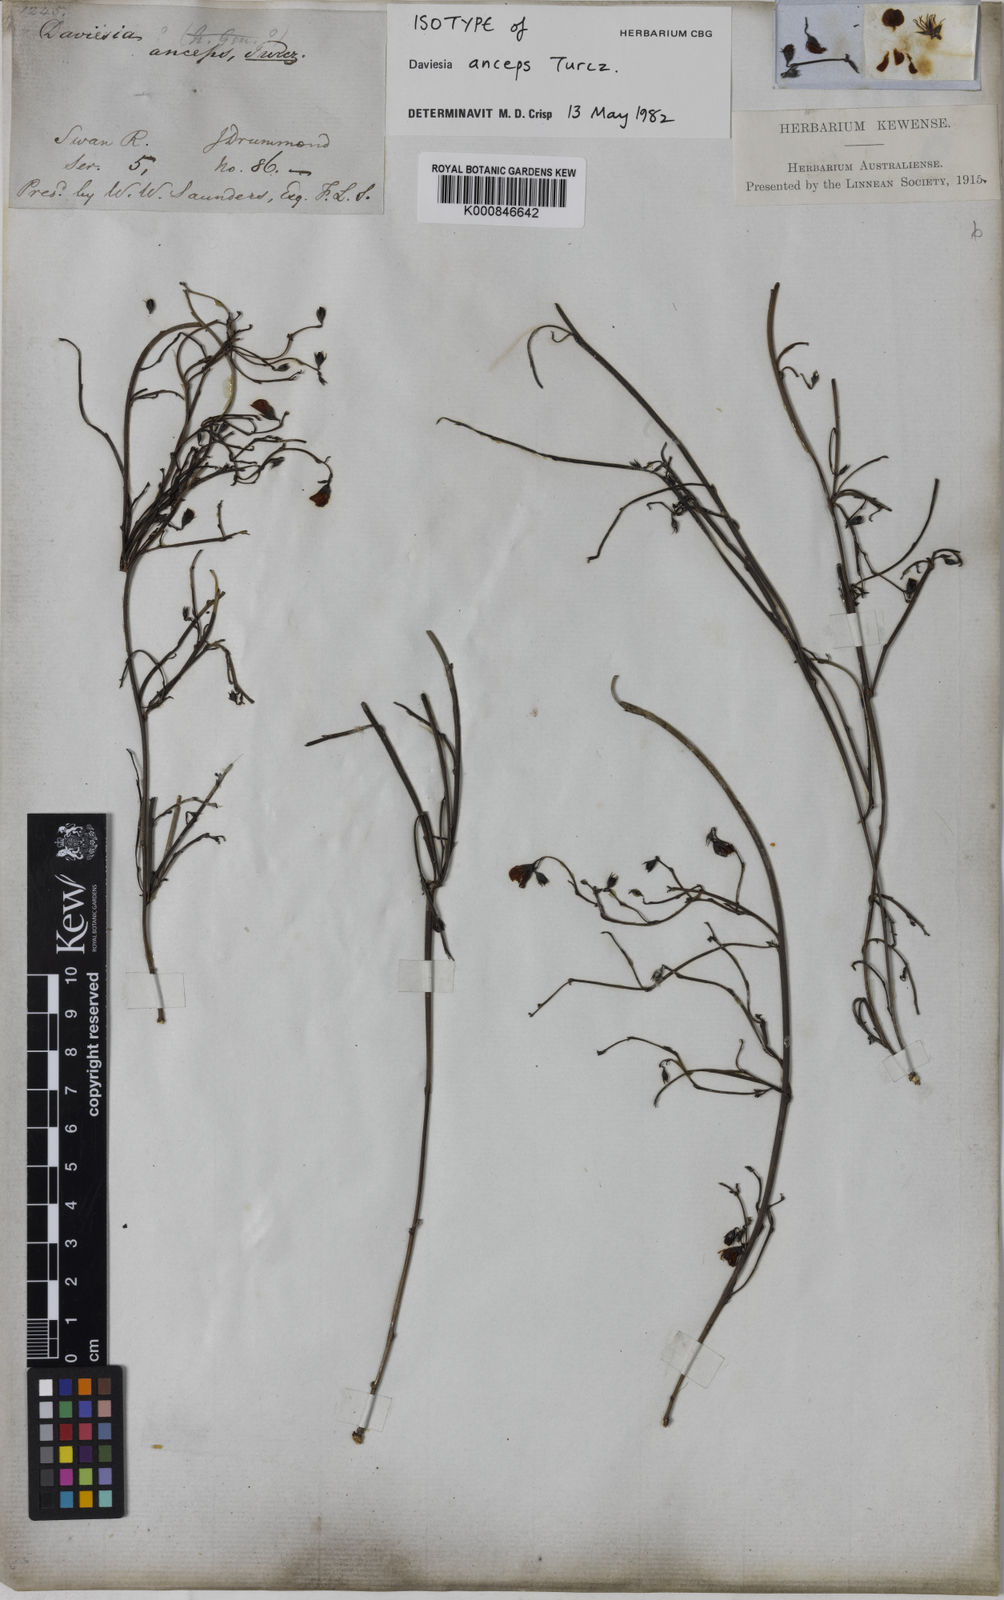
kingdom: Plantae
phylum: Tracheophyta
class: Magnoliopsida
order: Fabales
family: Fabaceae
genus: Daviesia
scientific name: Daviesia anceps
